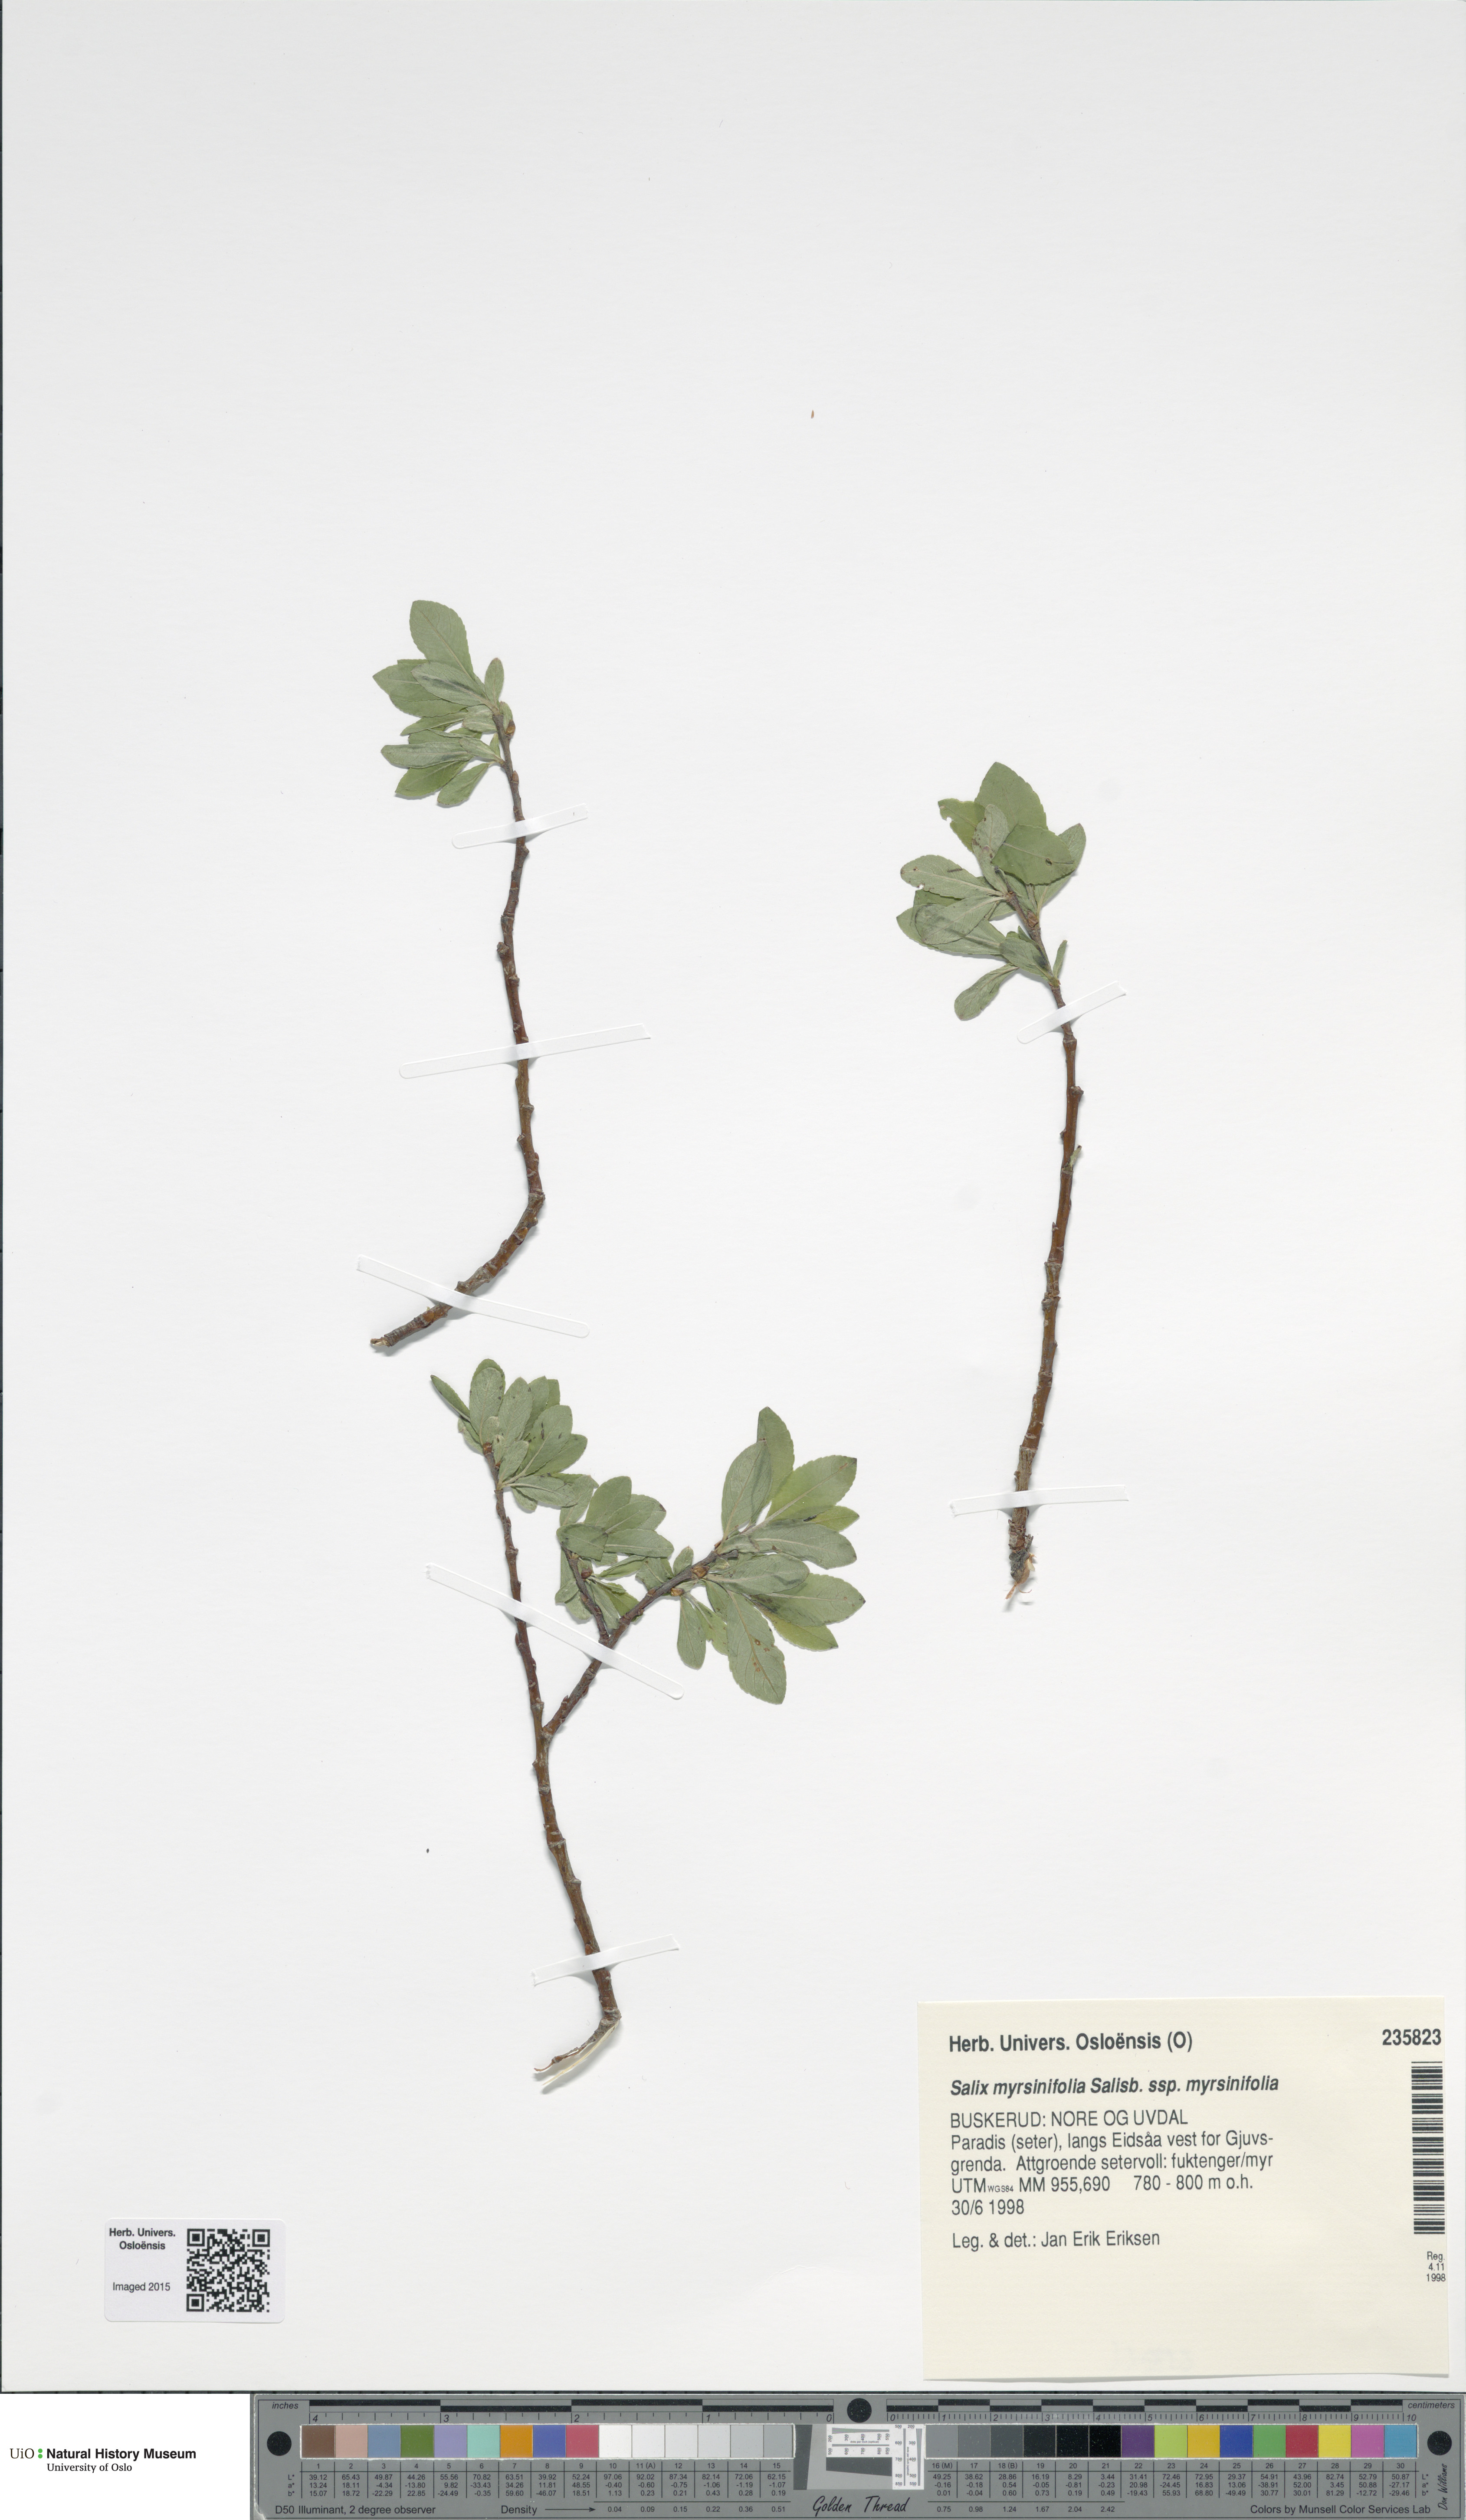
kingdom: Plantae
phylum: Tracheophyta
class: Magnoliopsida
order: Malpighiales
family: Salicaceae
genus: Salix
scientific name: Salix myrsinifolia
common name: Dark-leaved willow
